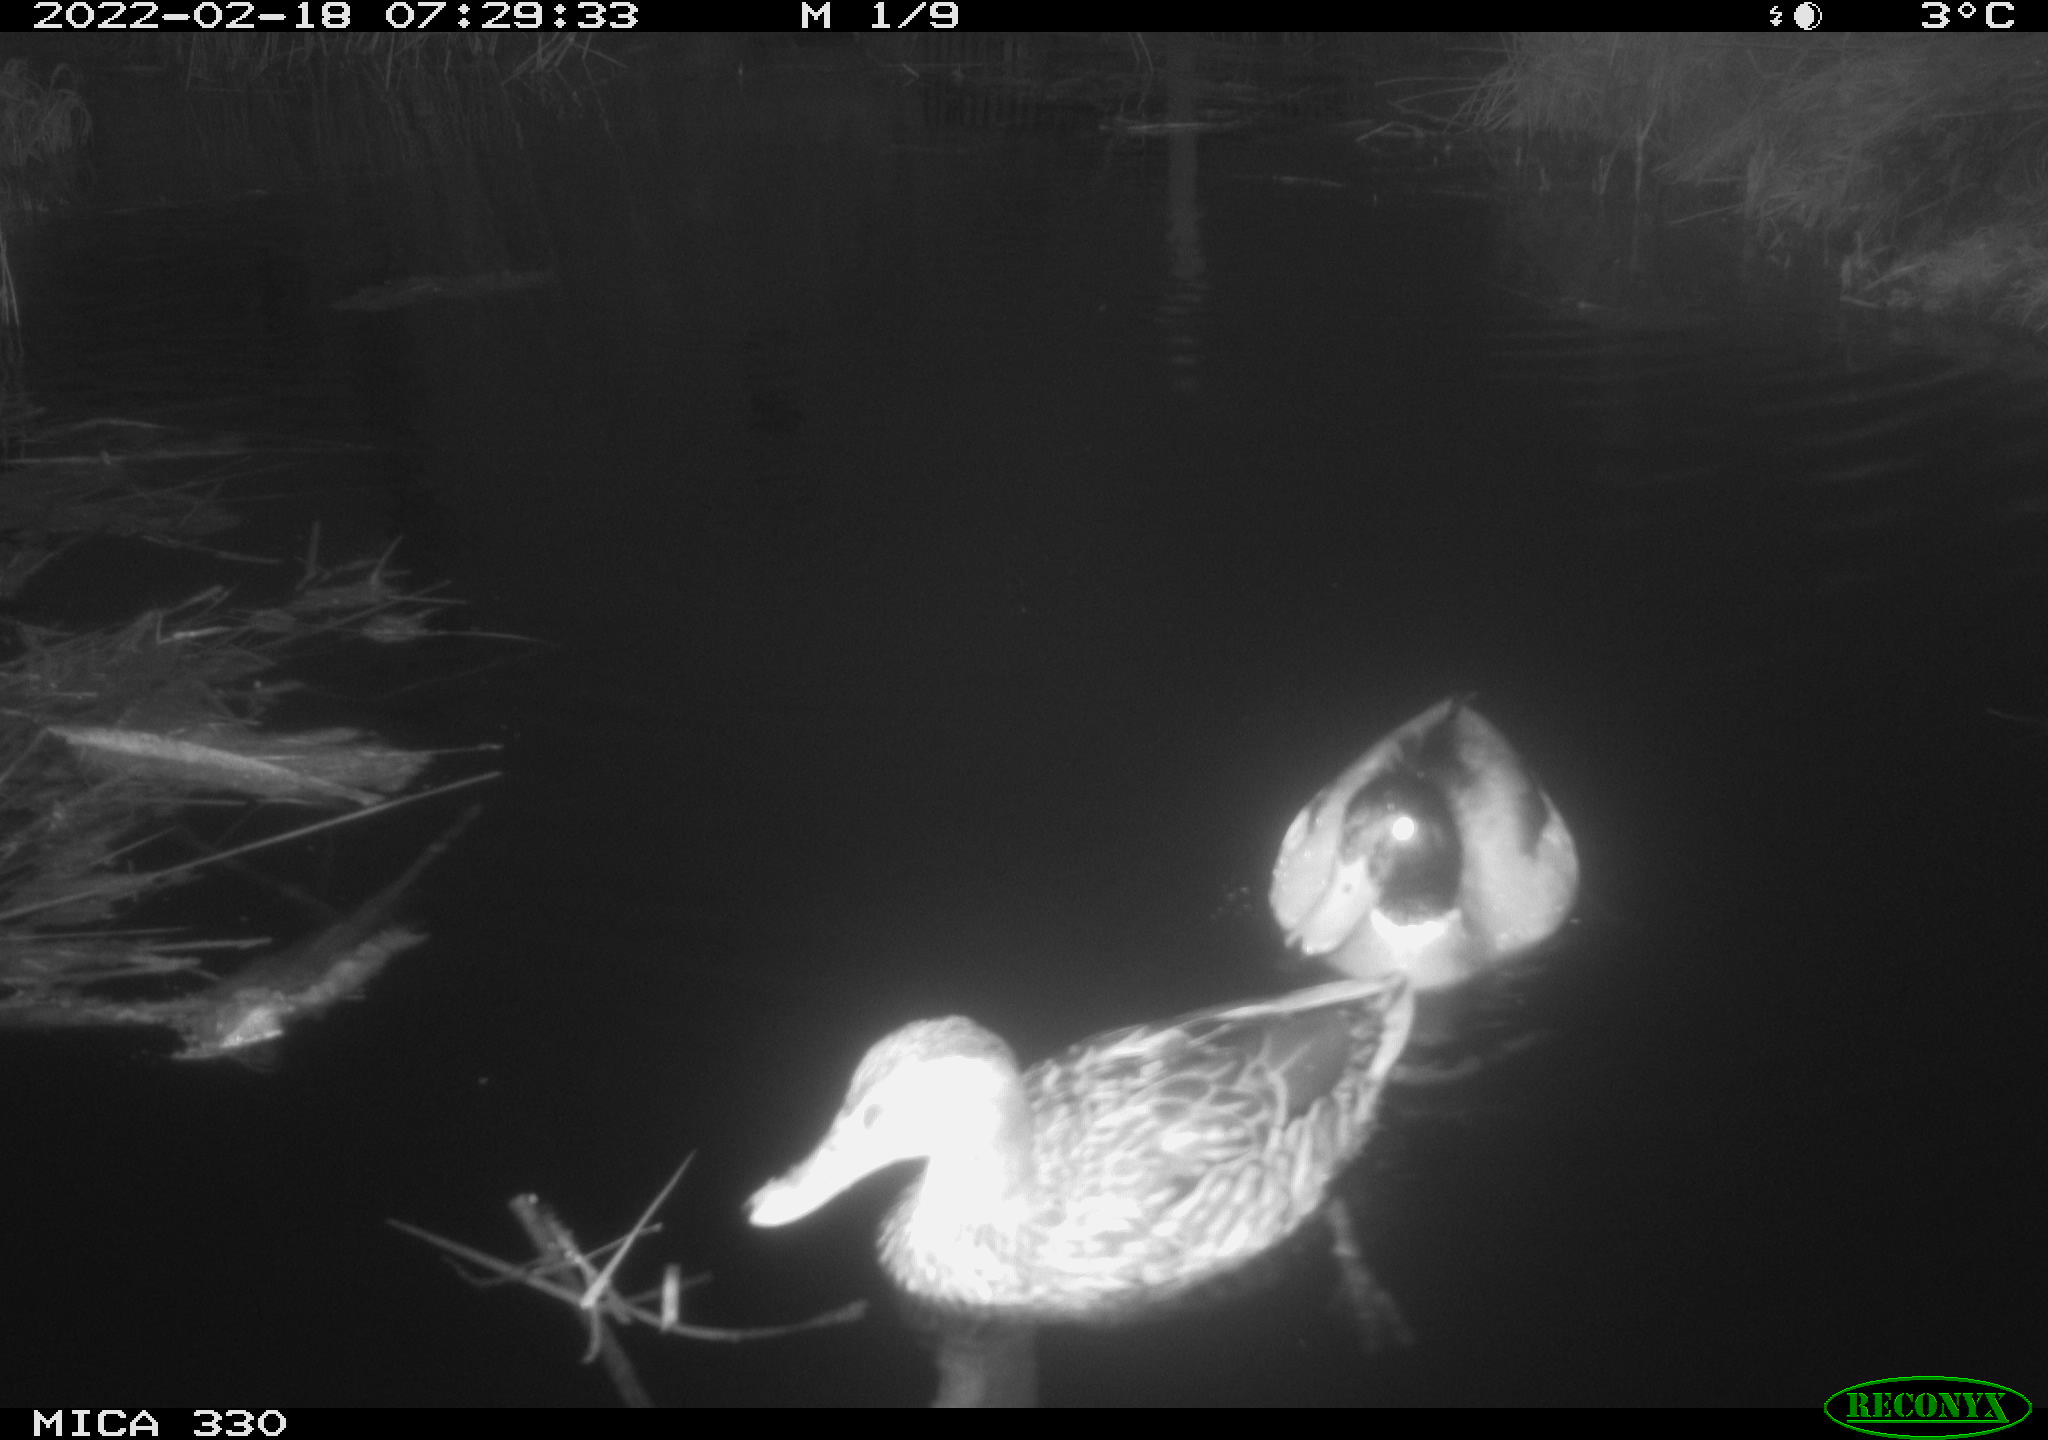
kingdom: Animalia
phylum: Chordata
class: Aves
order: Anseriformes
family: Anatidae
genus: Anas
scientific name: Anas platyrhynchos
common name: Mallard
